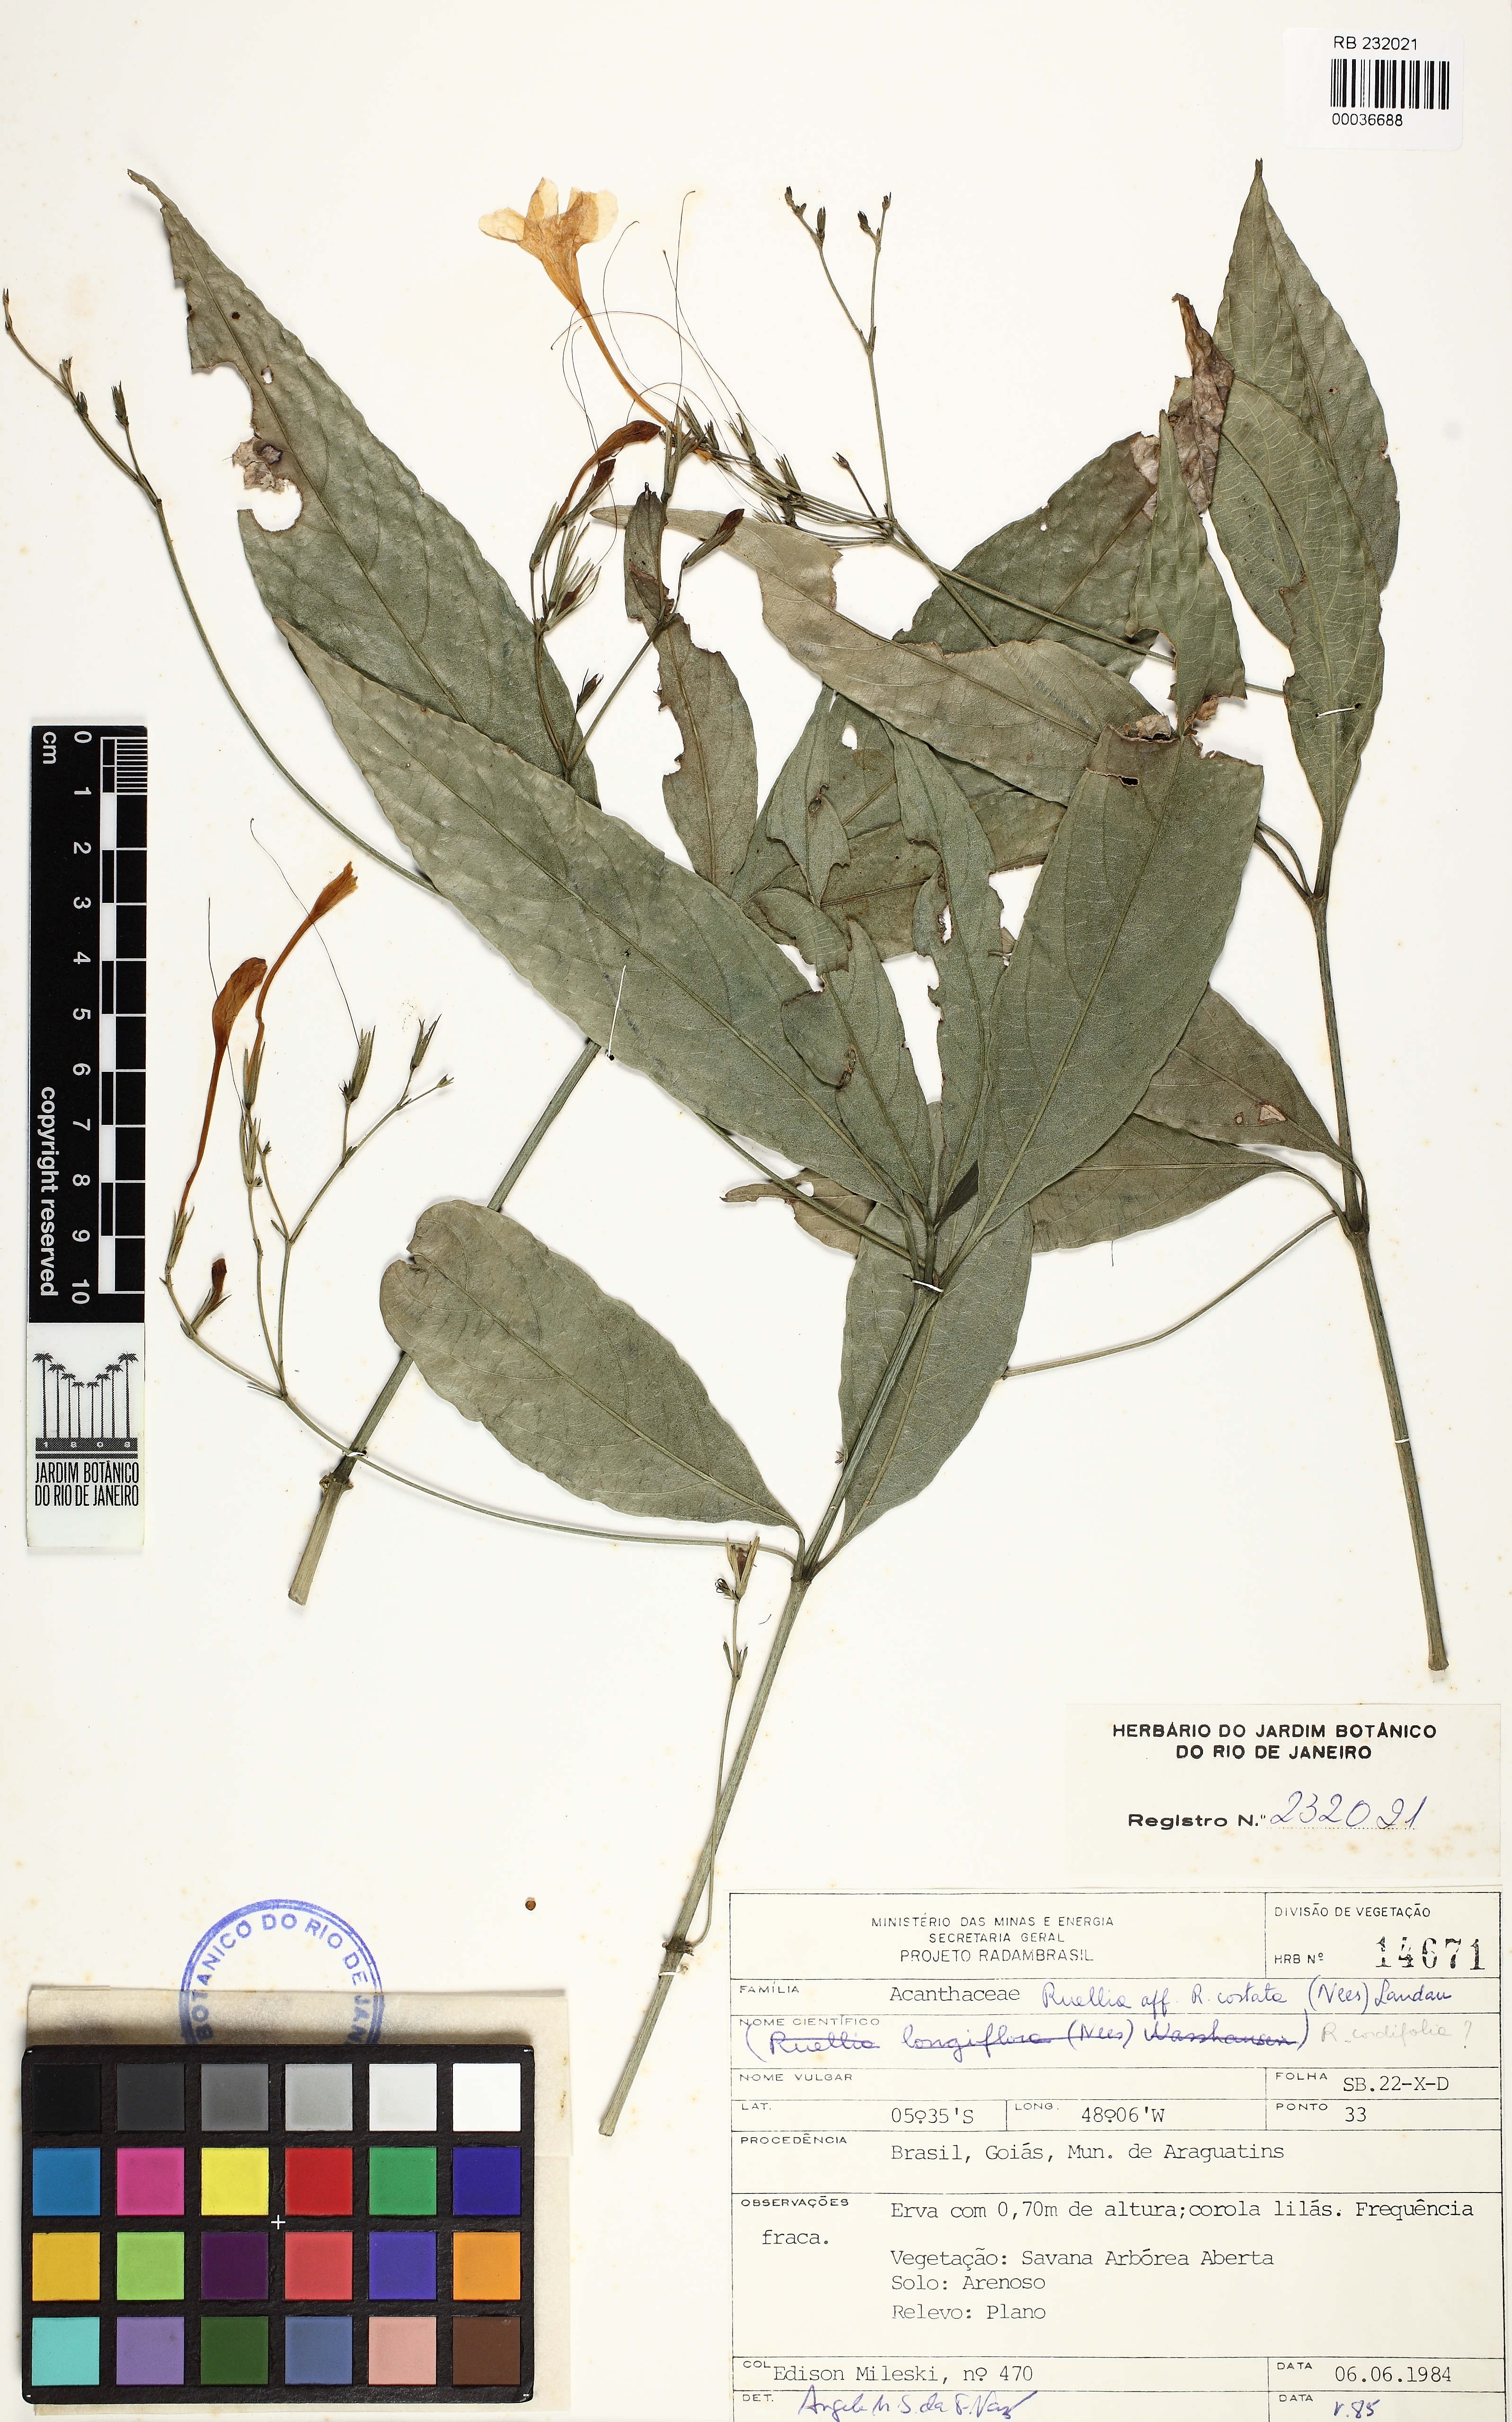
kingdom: Plantae
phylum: Tracheophyta
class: Magnoliopsida
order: Lamiales
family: Acanthaceae
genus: Ruellia
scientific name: Ruellia costata
